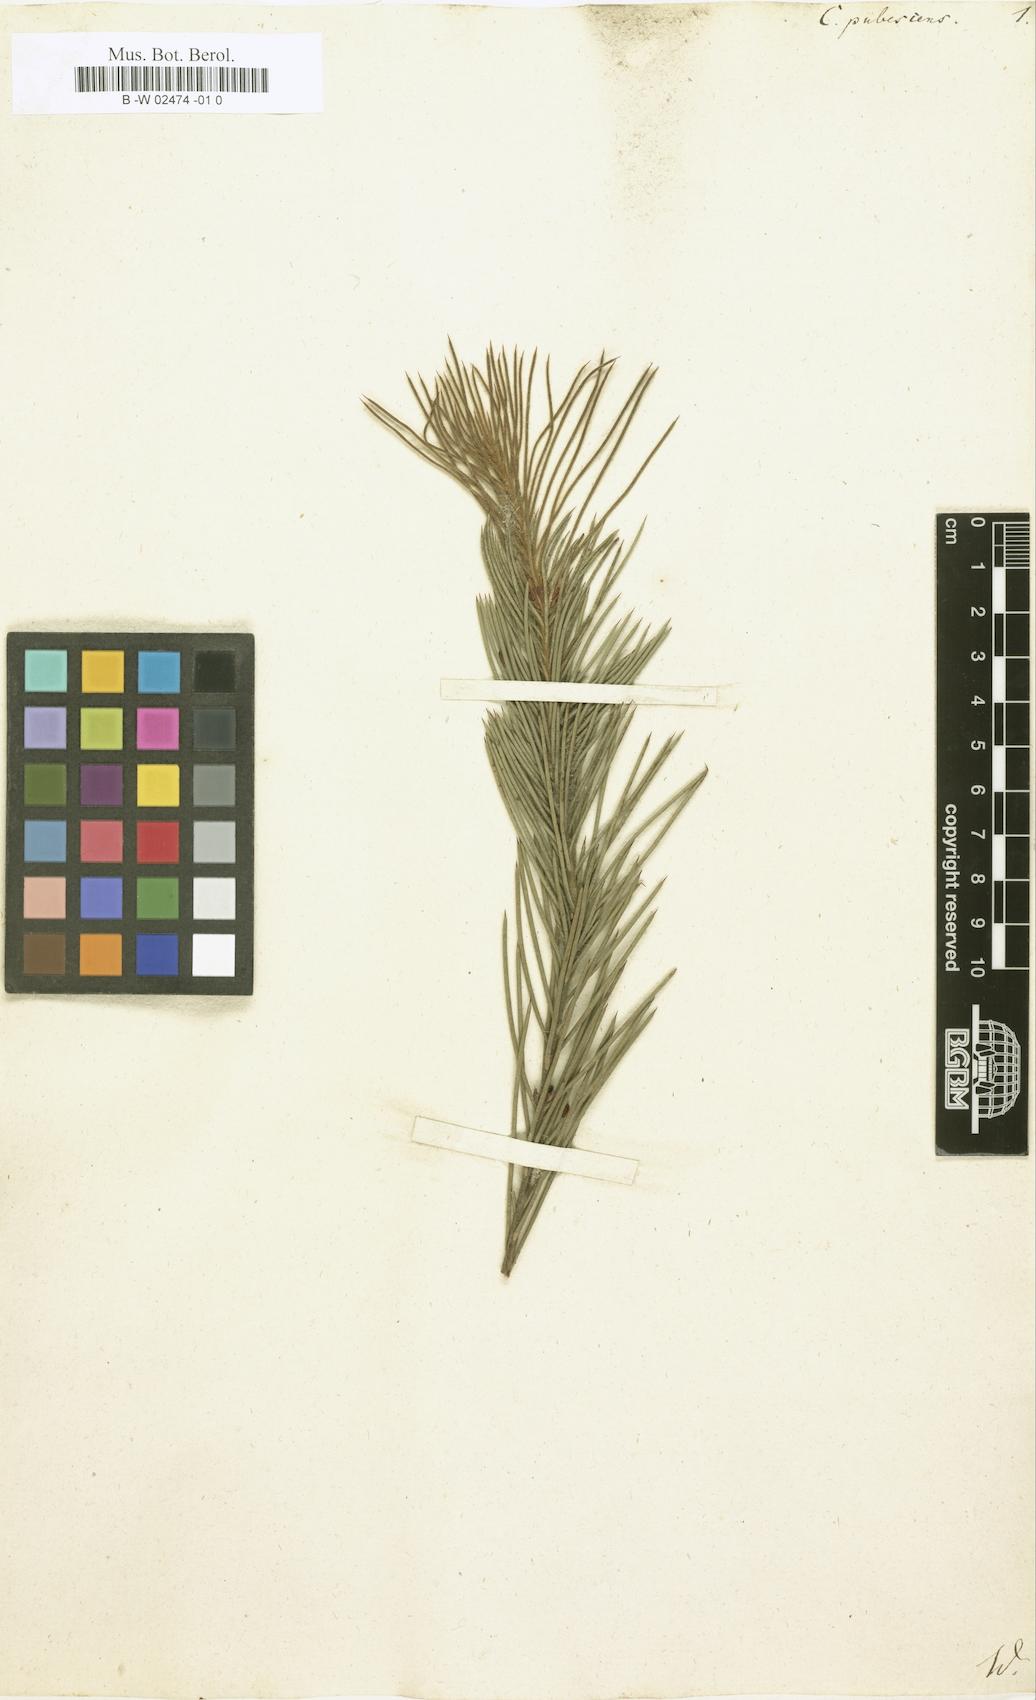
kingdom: Plantae
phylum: Tracheophyta
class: Magnoliopsida
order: Proteales
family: Proteaceae
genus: Hakea
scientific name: Hakea gibbosa
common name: Rock hakea
